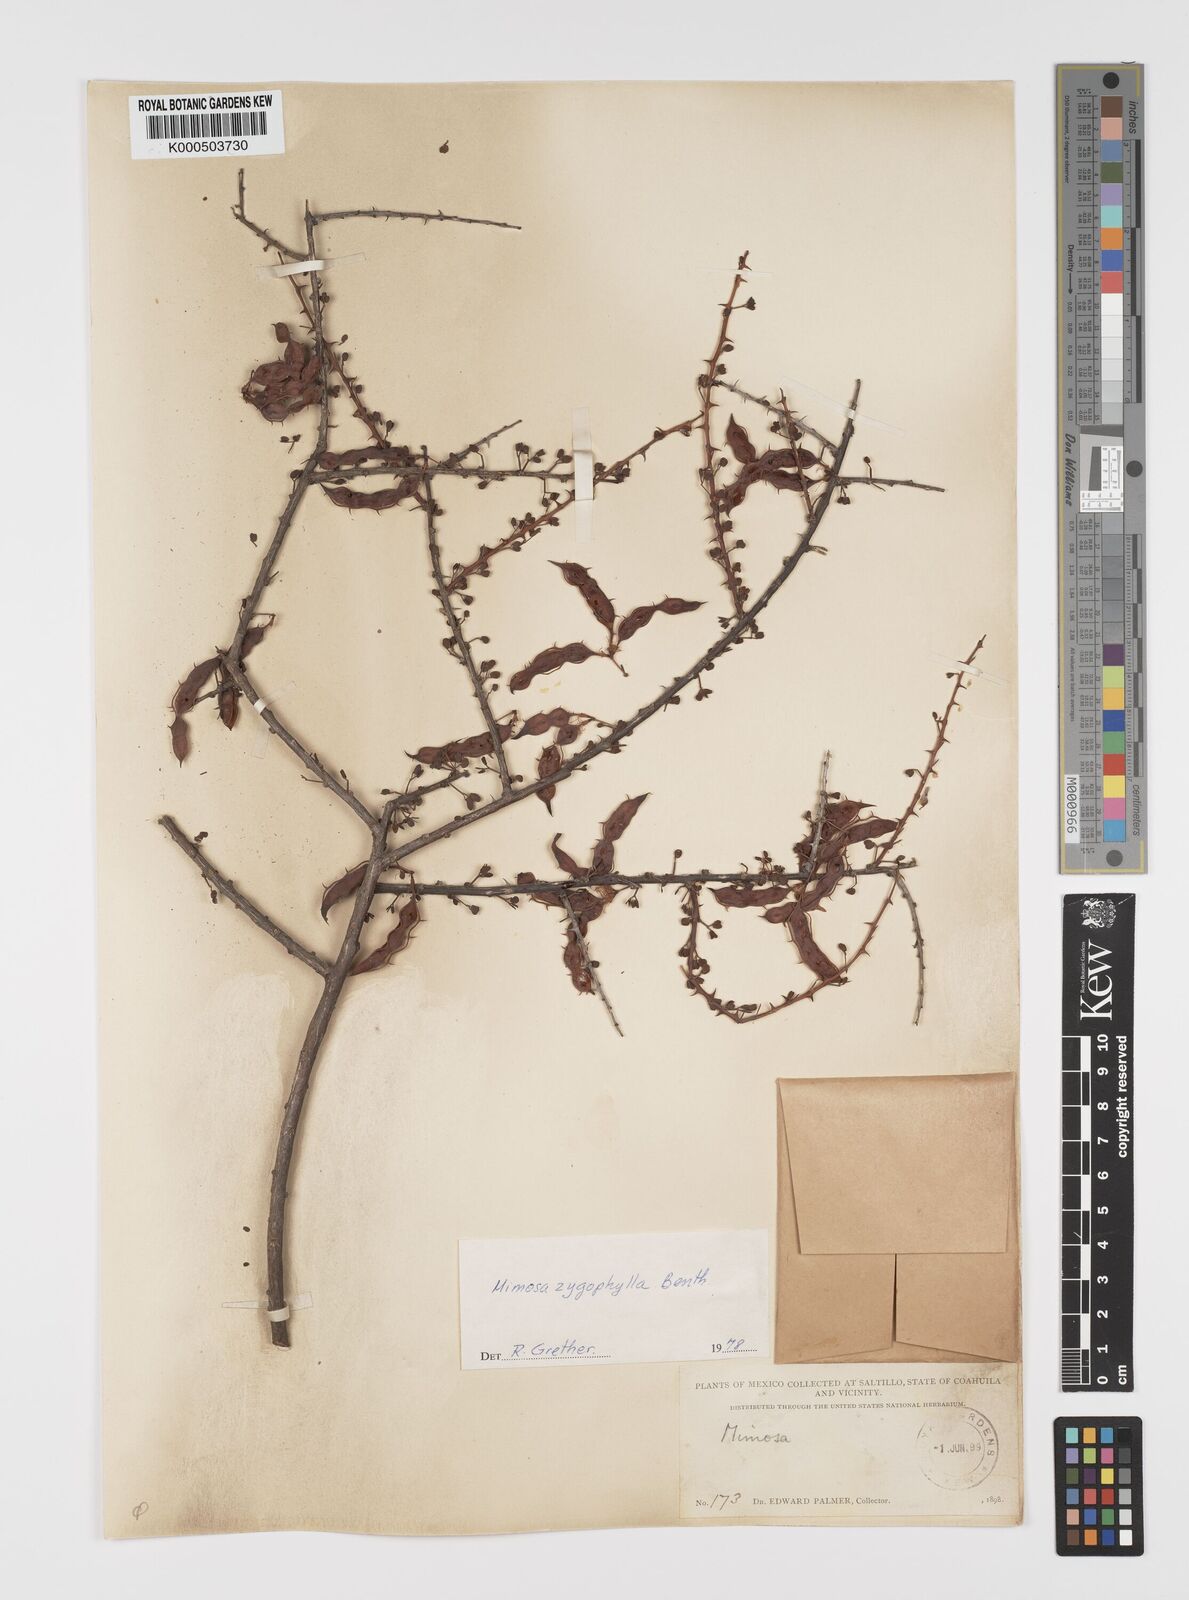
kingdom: Plantae
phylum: Tracheophyta
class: Magnoliopsida
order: Fabales
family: Fabaceae
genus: Mimosa
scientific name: Mimosa zygophylla
